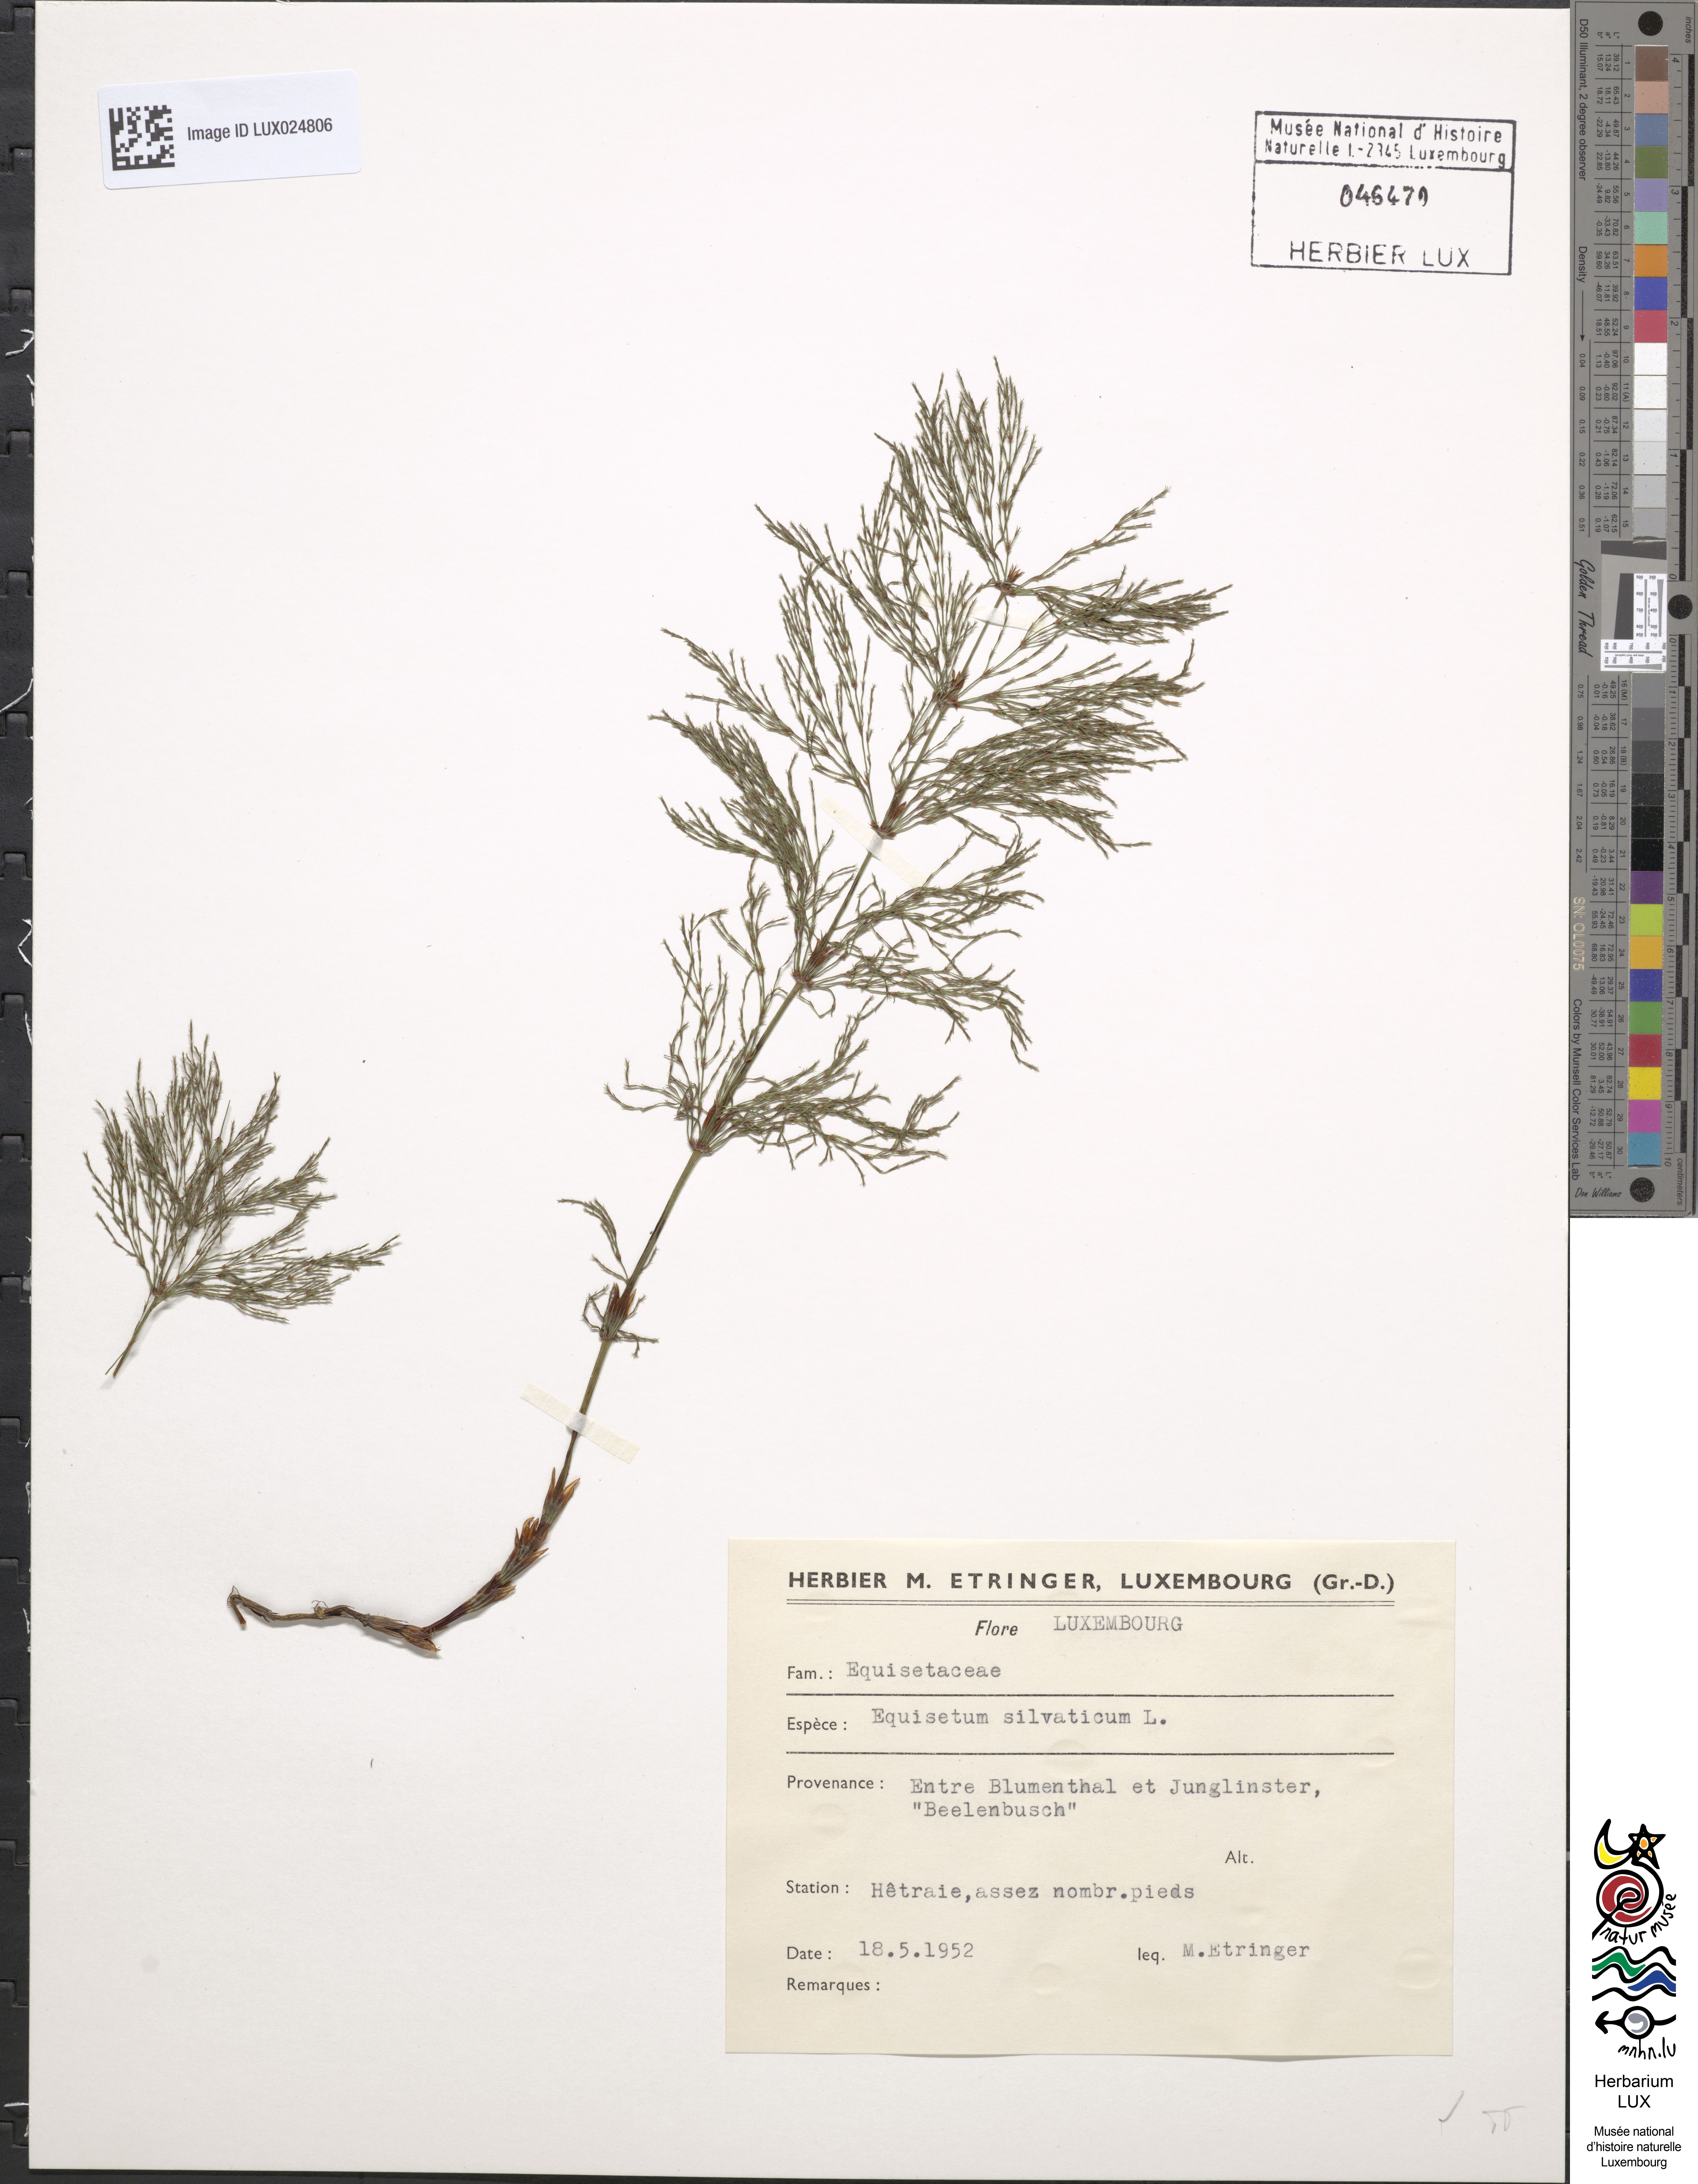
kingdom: Plantae
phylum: Tracheophyta
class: Polypodiopsida
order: Equisetales
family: Equisetaceae
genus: Equisetum
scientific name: Equisetum sylvaticum
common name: Wood horsetail
